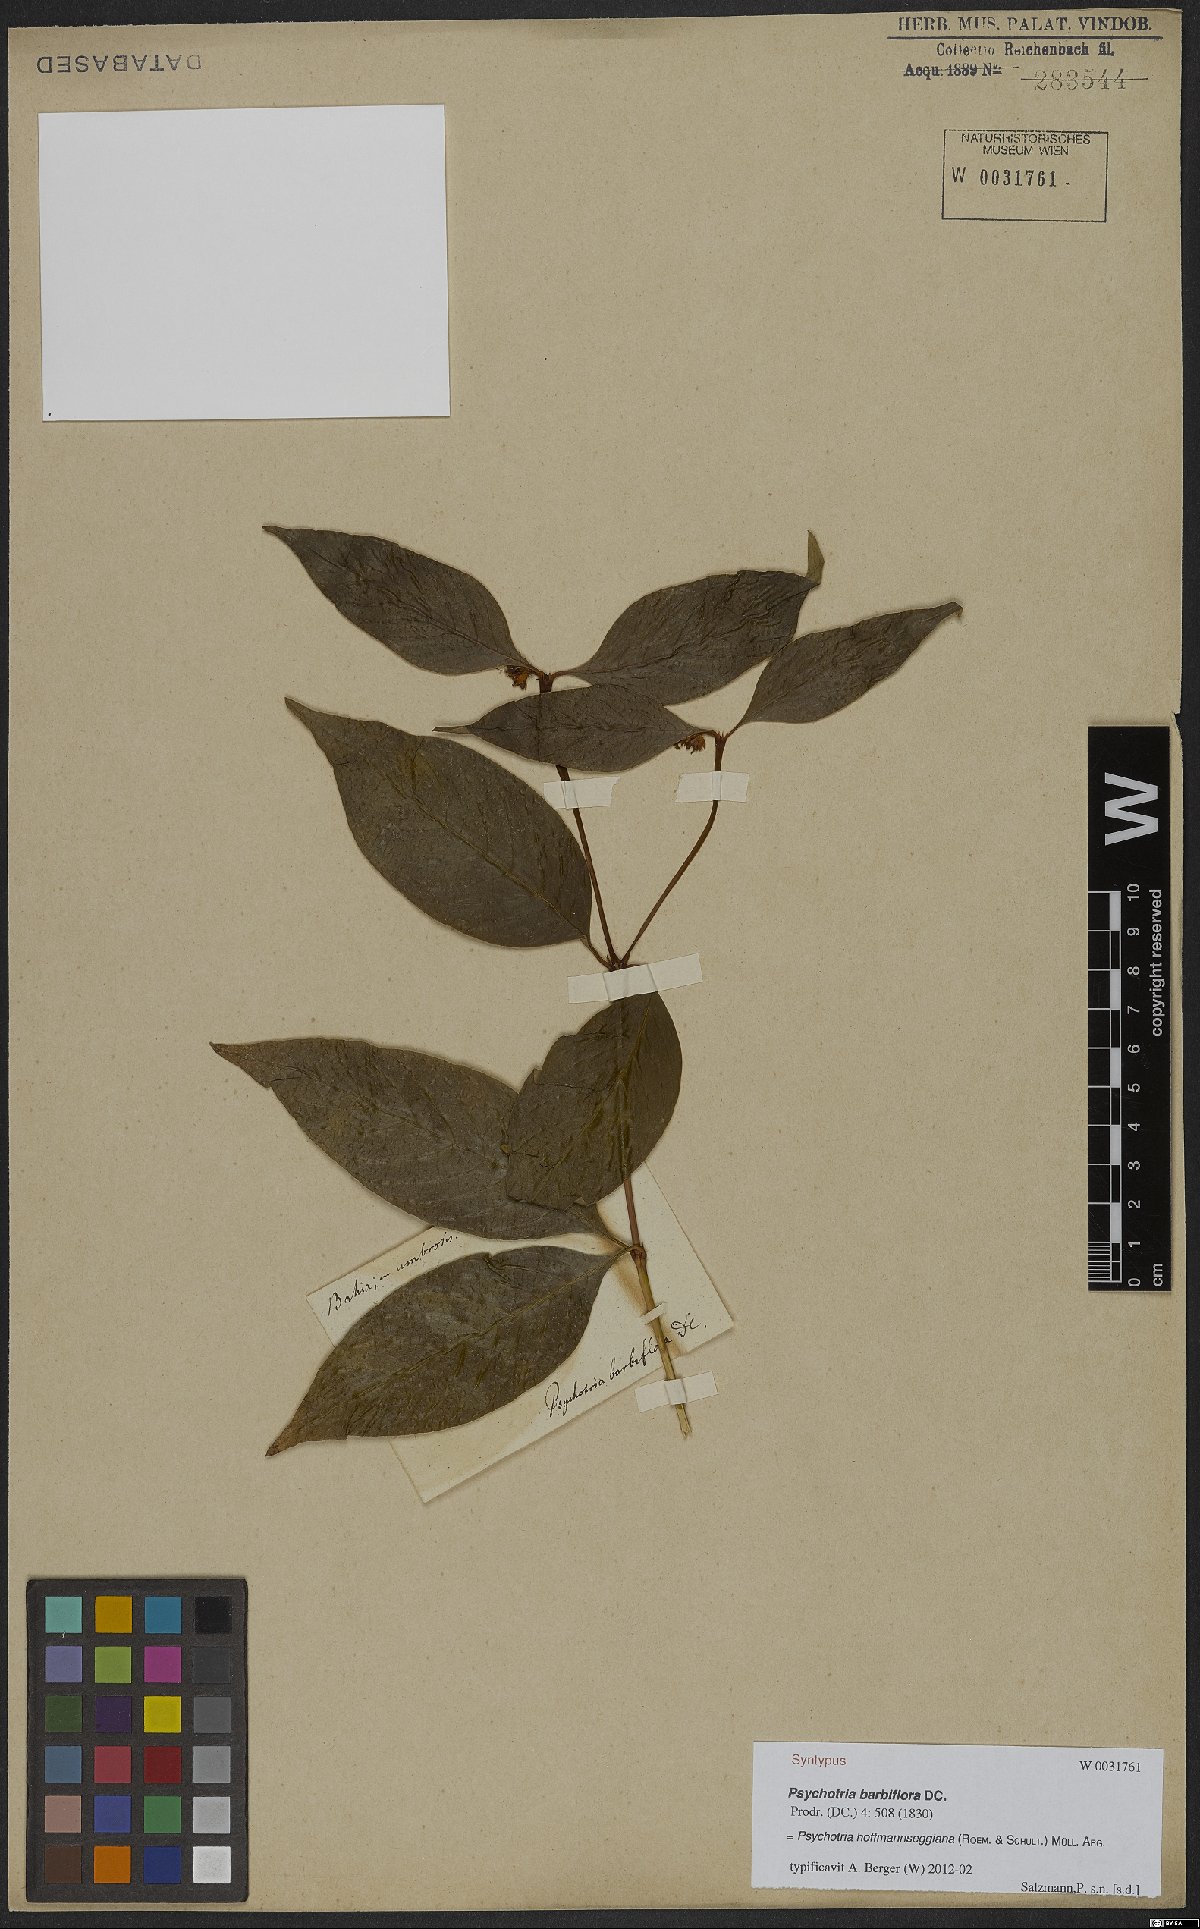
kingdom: Plantae
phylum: Tracheophyta
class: Magnoliopsida
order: Gentianales
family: Rubiaceae
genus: Palicourea
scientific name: Palicourea hoffmannseggiana
